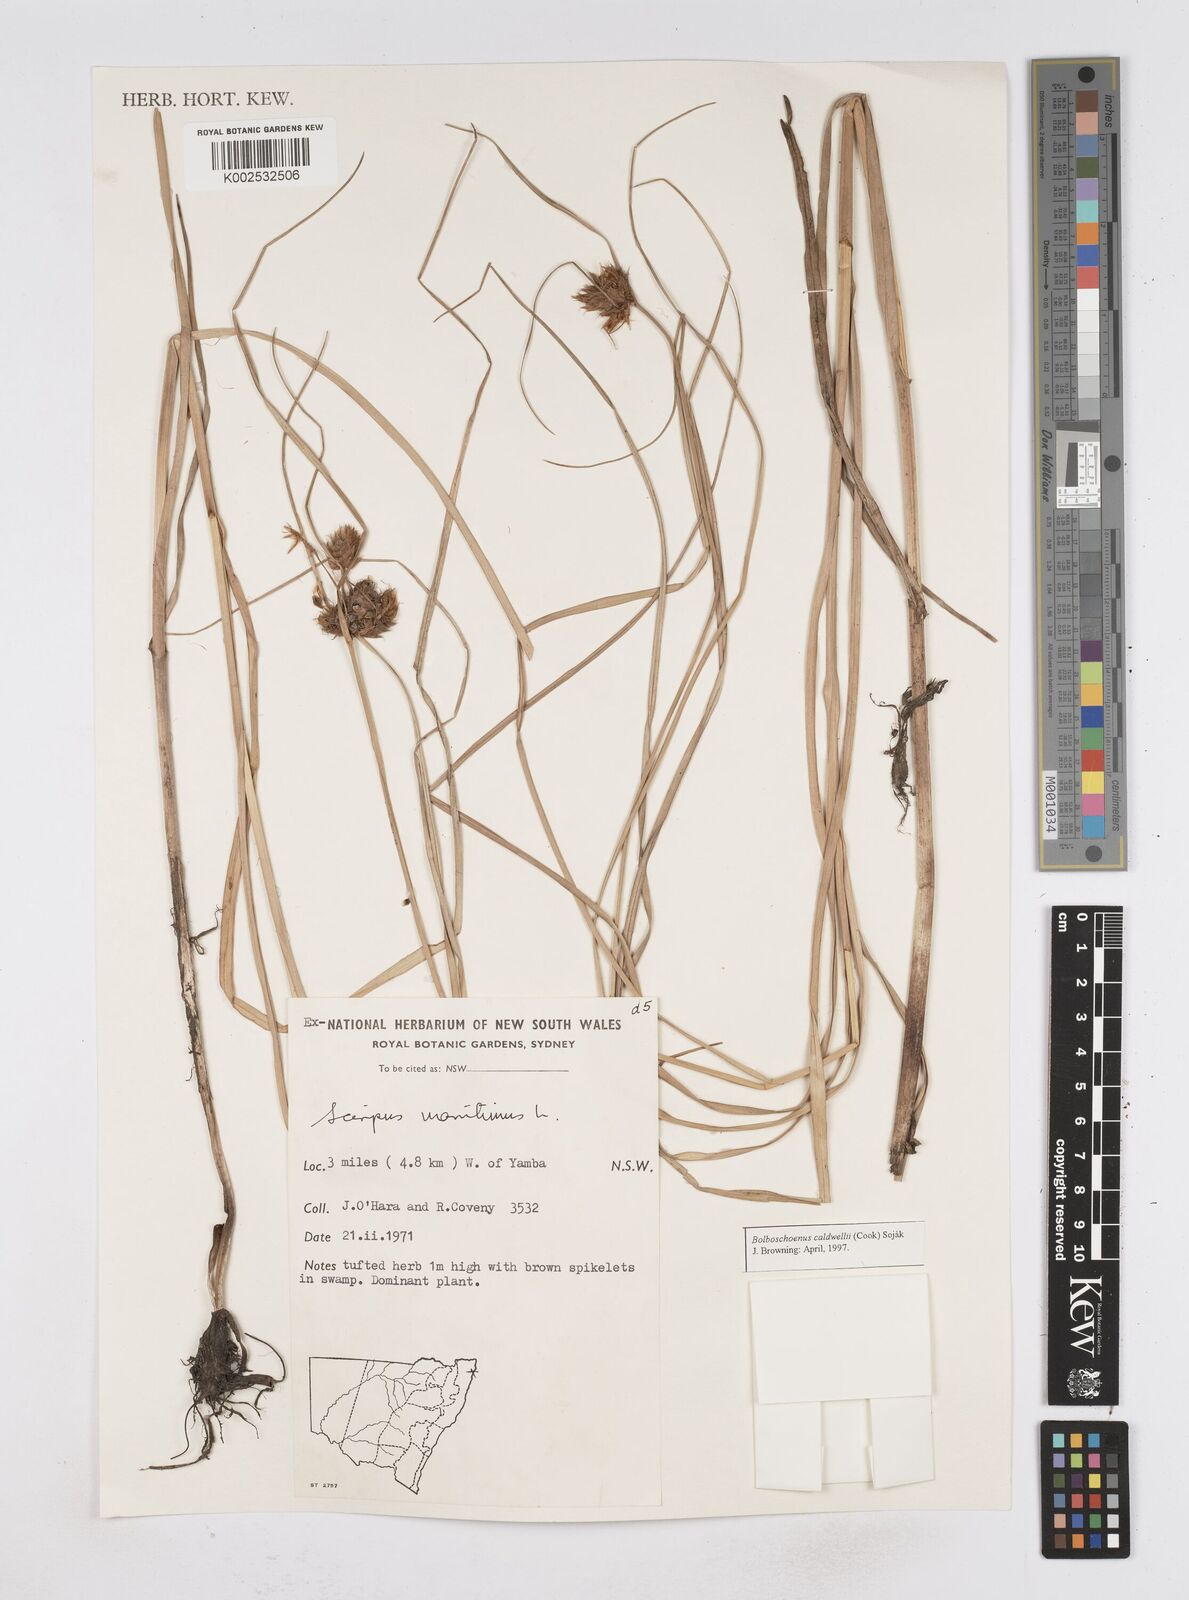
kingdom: Plantae
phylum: Tracheophyta
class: Liliopsida
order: Poales
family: Cyperaceae
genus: Bolboschoenus
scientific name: Bolboschoenus maritimus
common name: Sea club-rush
